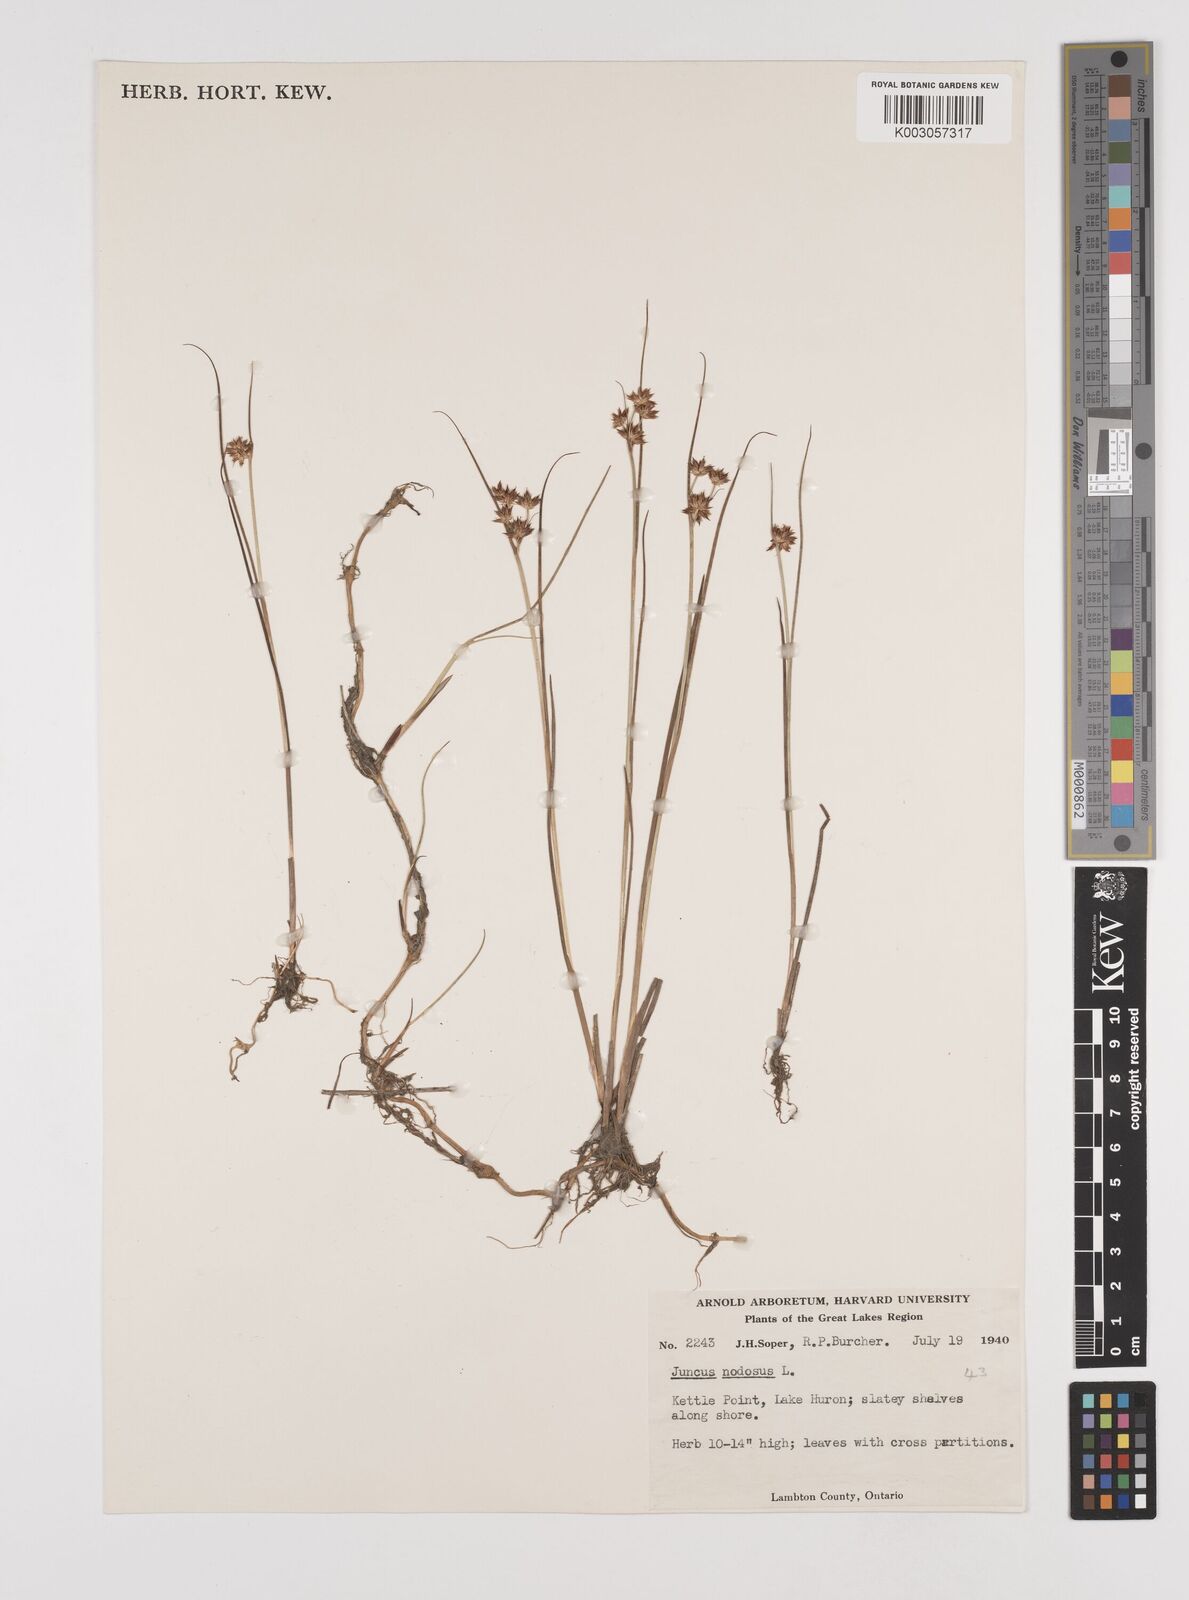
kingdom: Plantae
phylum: Tracheophyta
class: Liliopsida
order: Poales
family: Juncaceae
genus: Juncus
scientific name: Juncus nodosus
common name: Knotted rush
